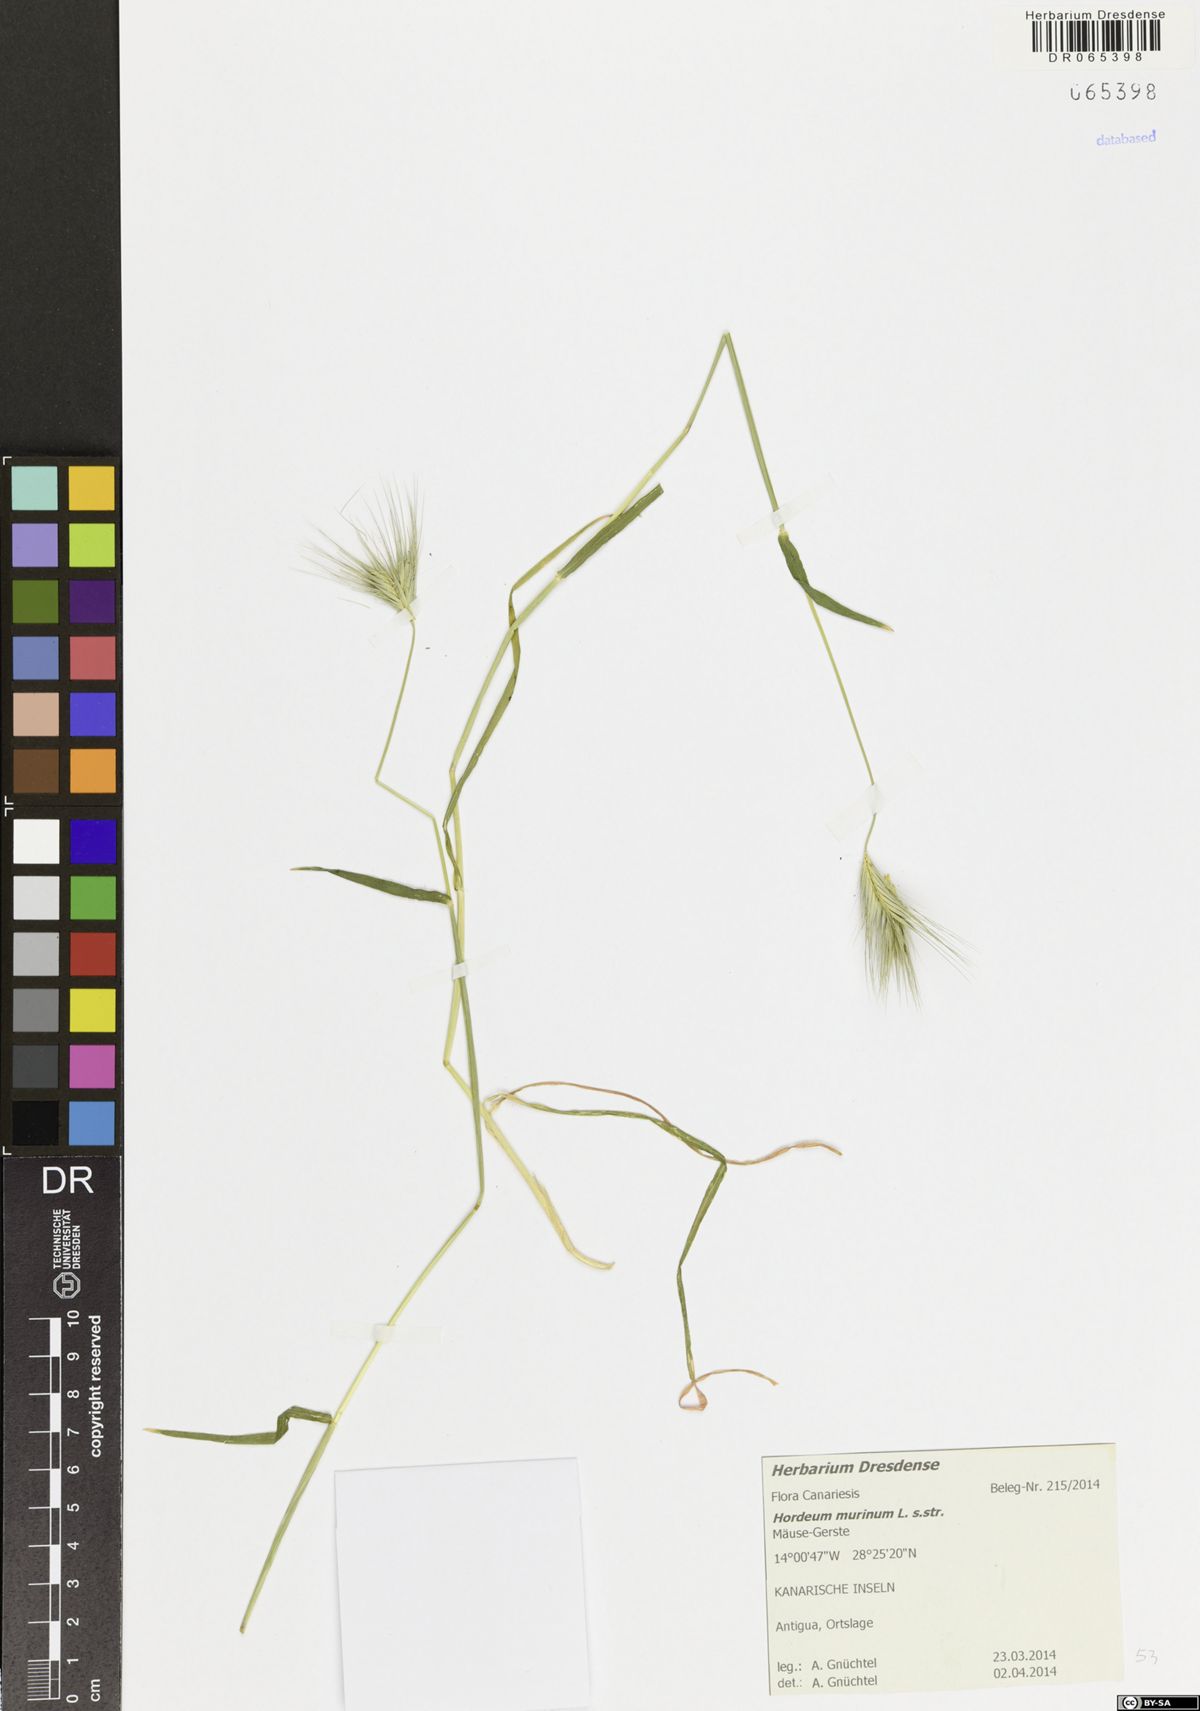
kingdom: Plantae
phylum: Tracheophyta
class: Liliopsida
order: Poales
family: Poaceae
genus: Hordeum
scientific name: Hordeum murinum
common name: Wall barley
